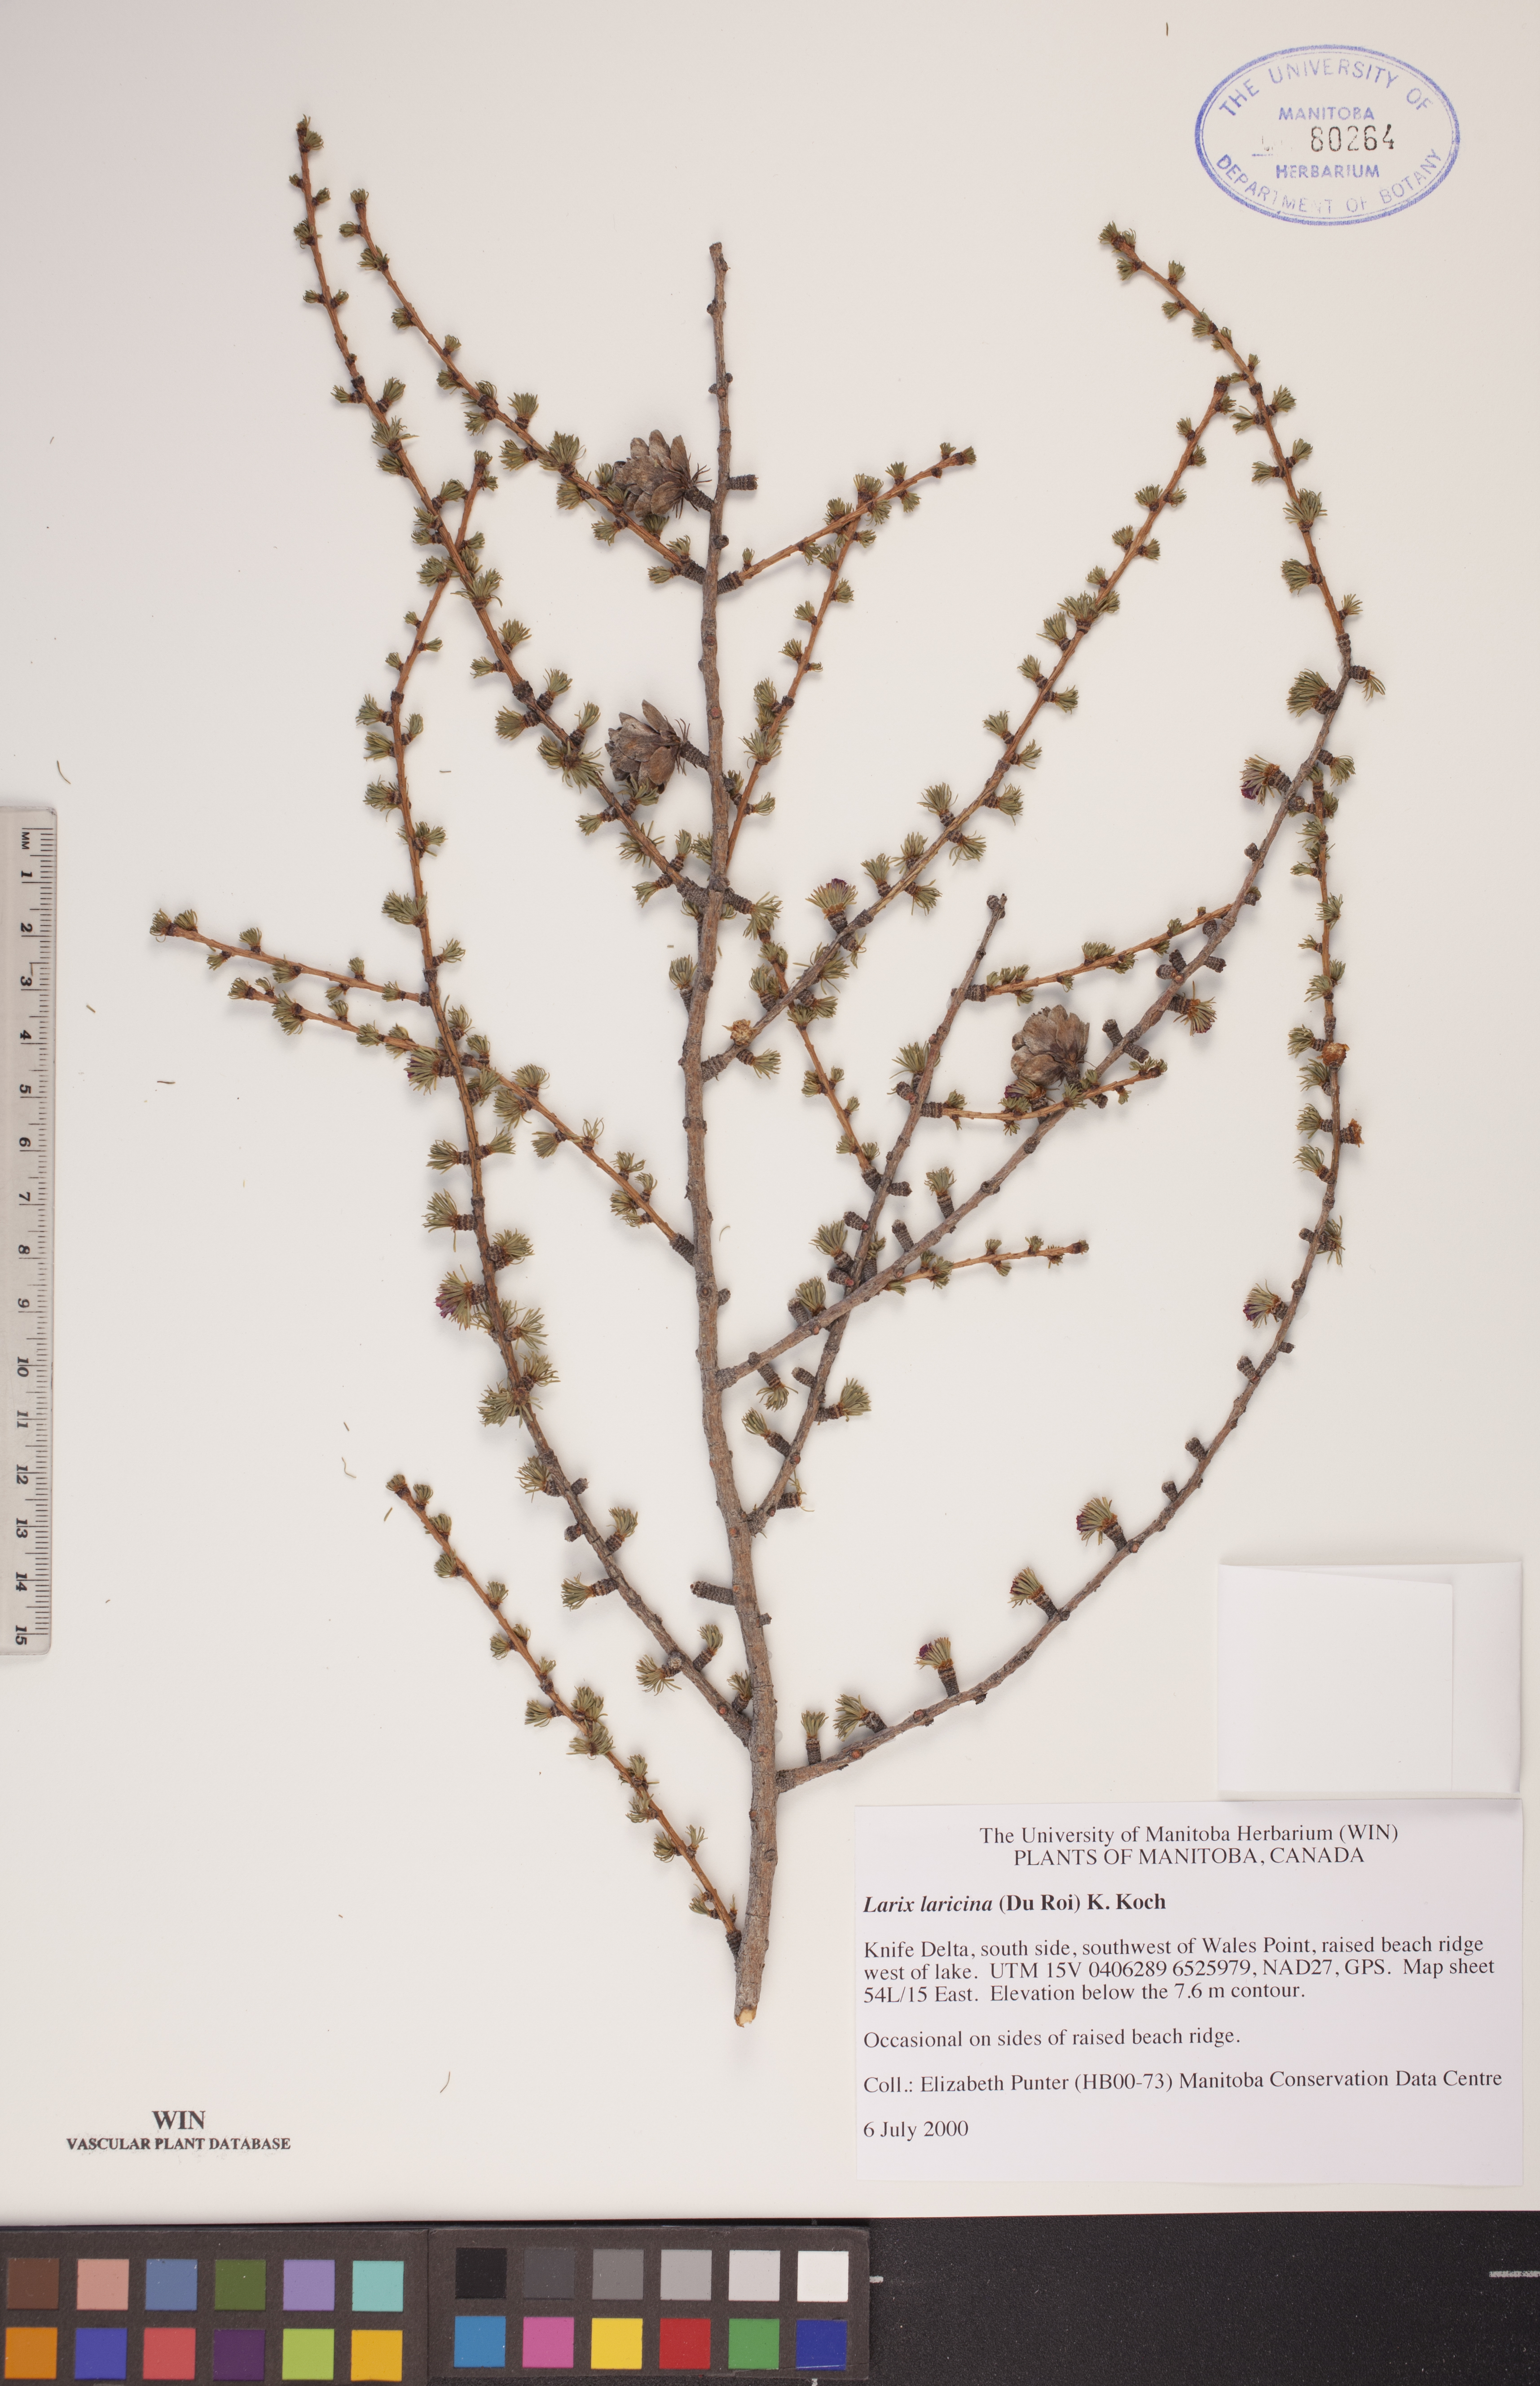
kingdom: Plantae
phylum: Tracheophyta
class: Pinopsida
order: Pinales
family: Pinaceae
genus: Larix
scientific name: Larix laricina
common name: American larch
